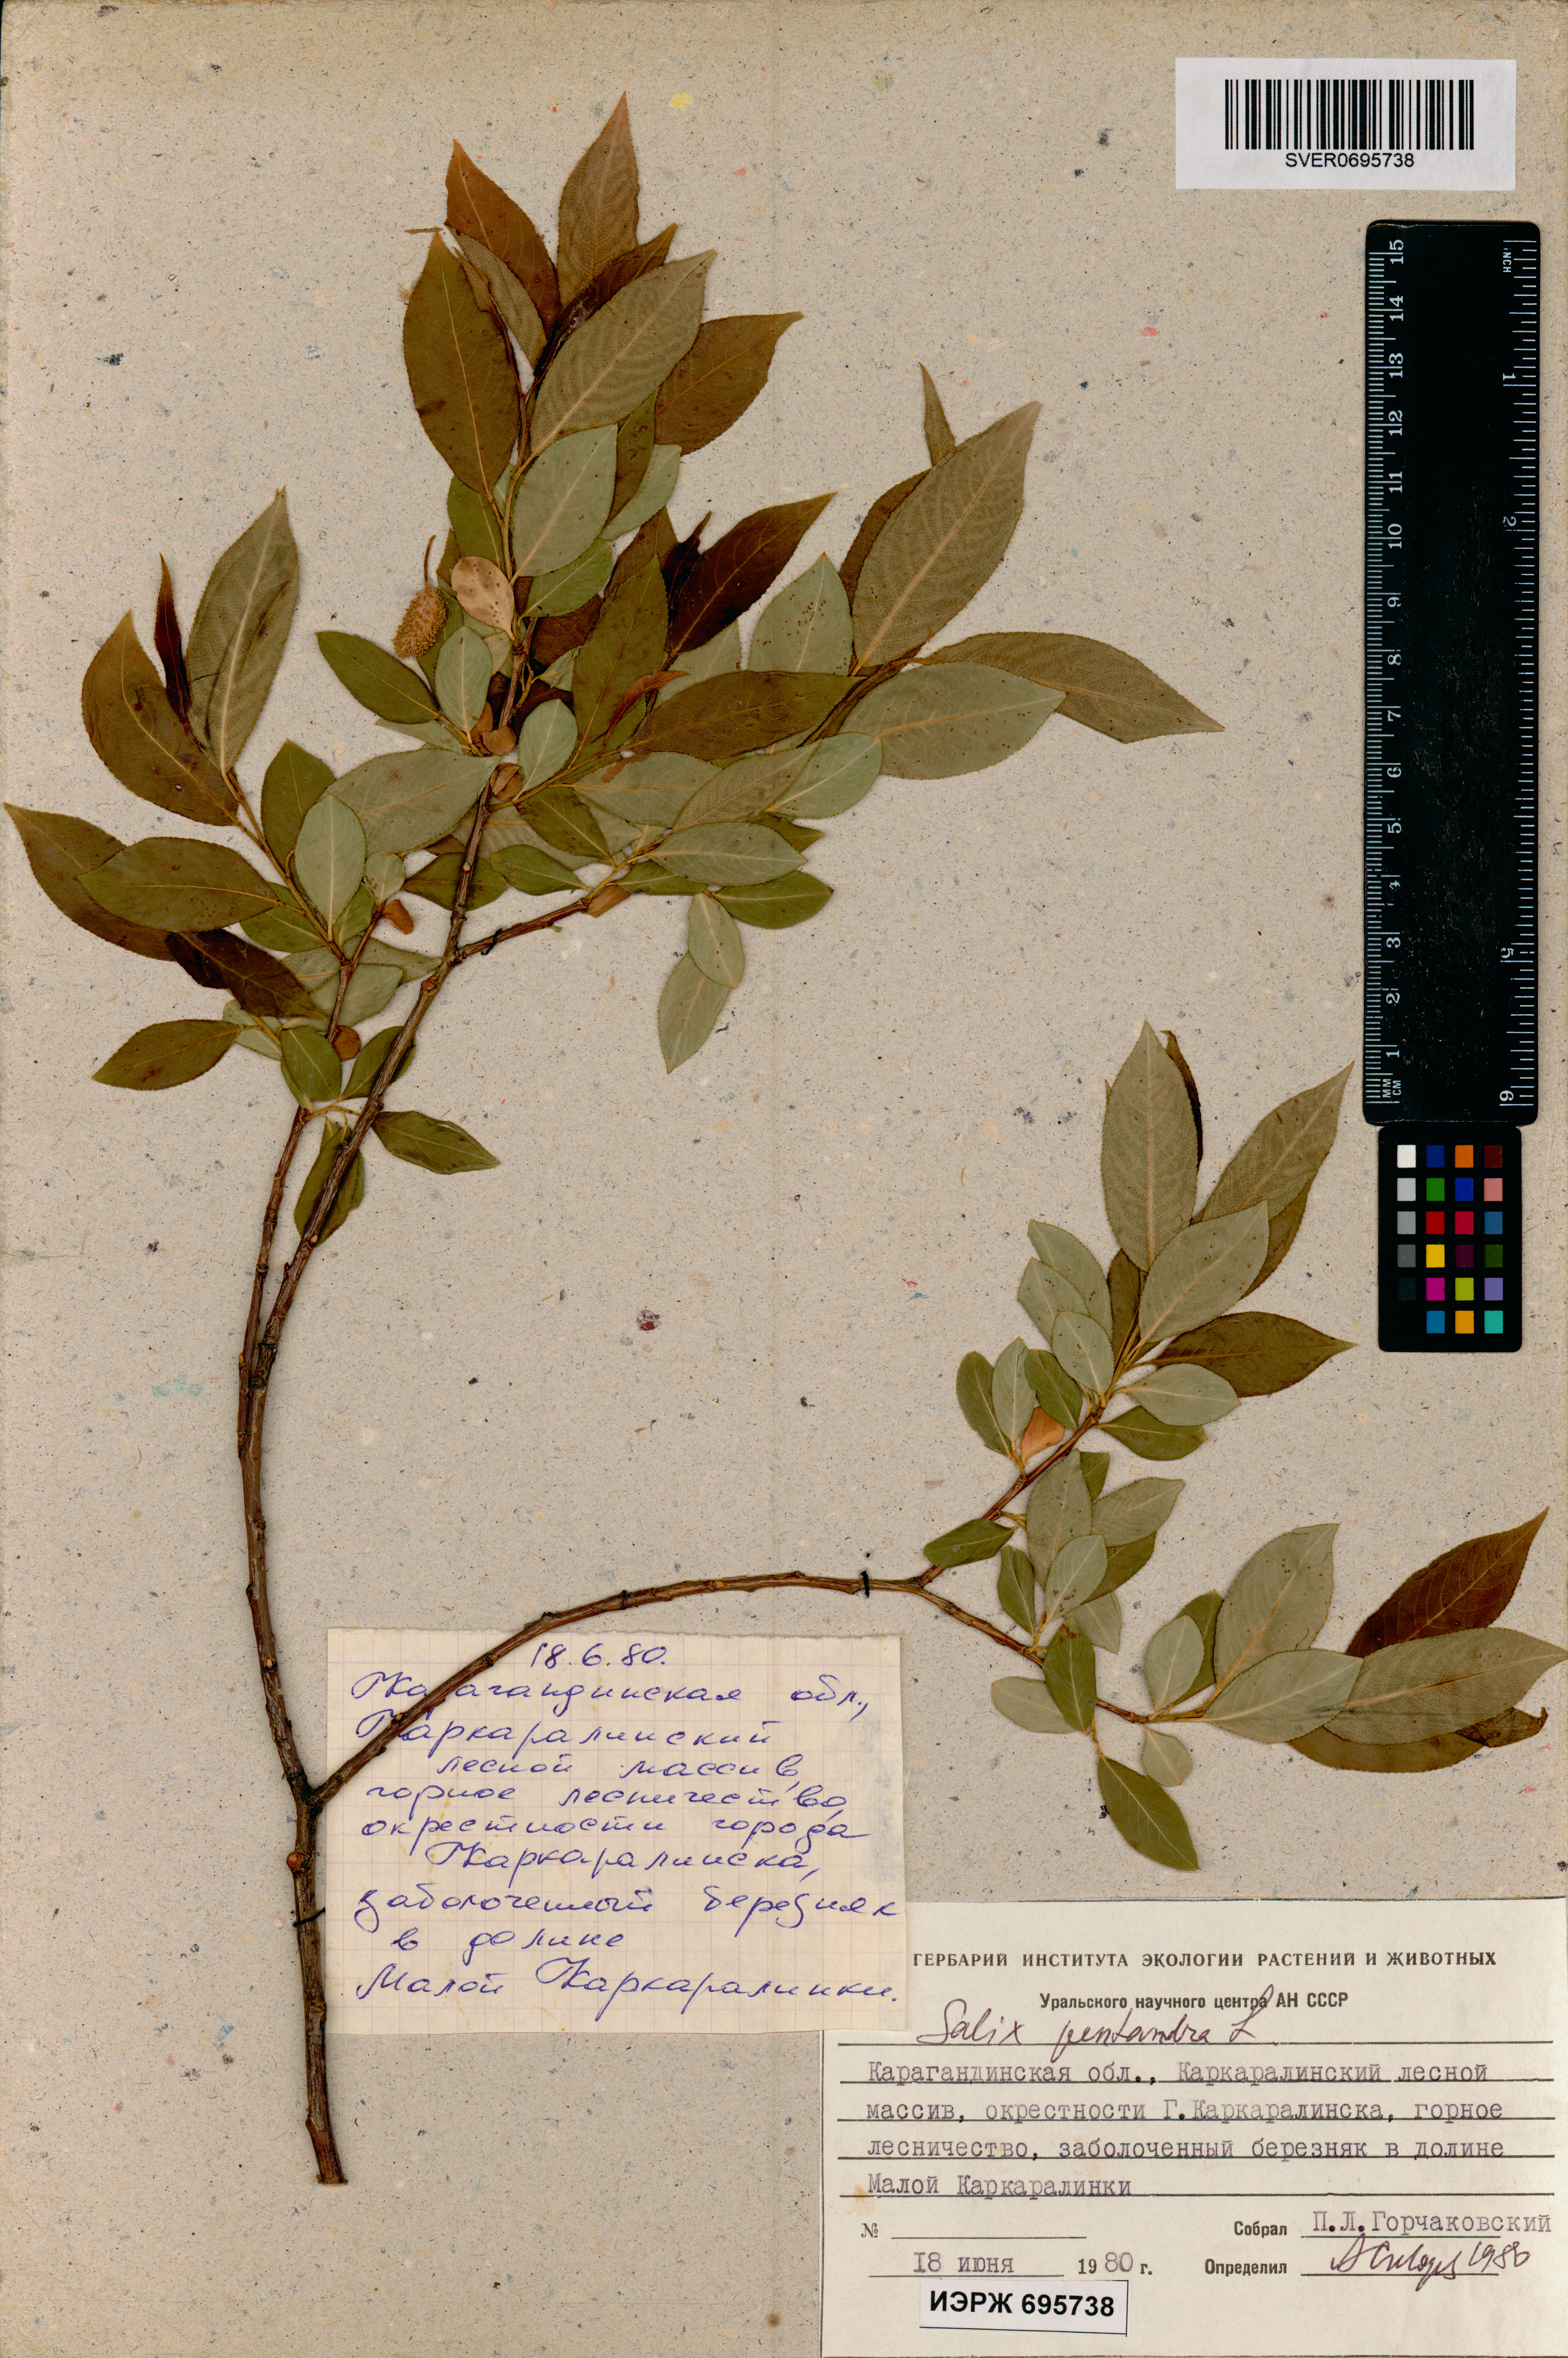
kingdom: Plantae
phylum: Tracheophyta
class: Magnoliopsida
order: Malpighiales
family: Salicaceae
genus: Salix
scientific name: Salix pentandra
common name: Bay willow
